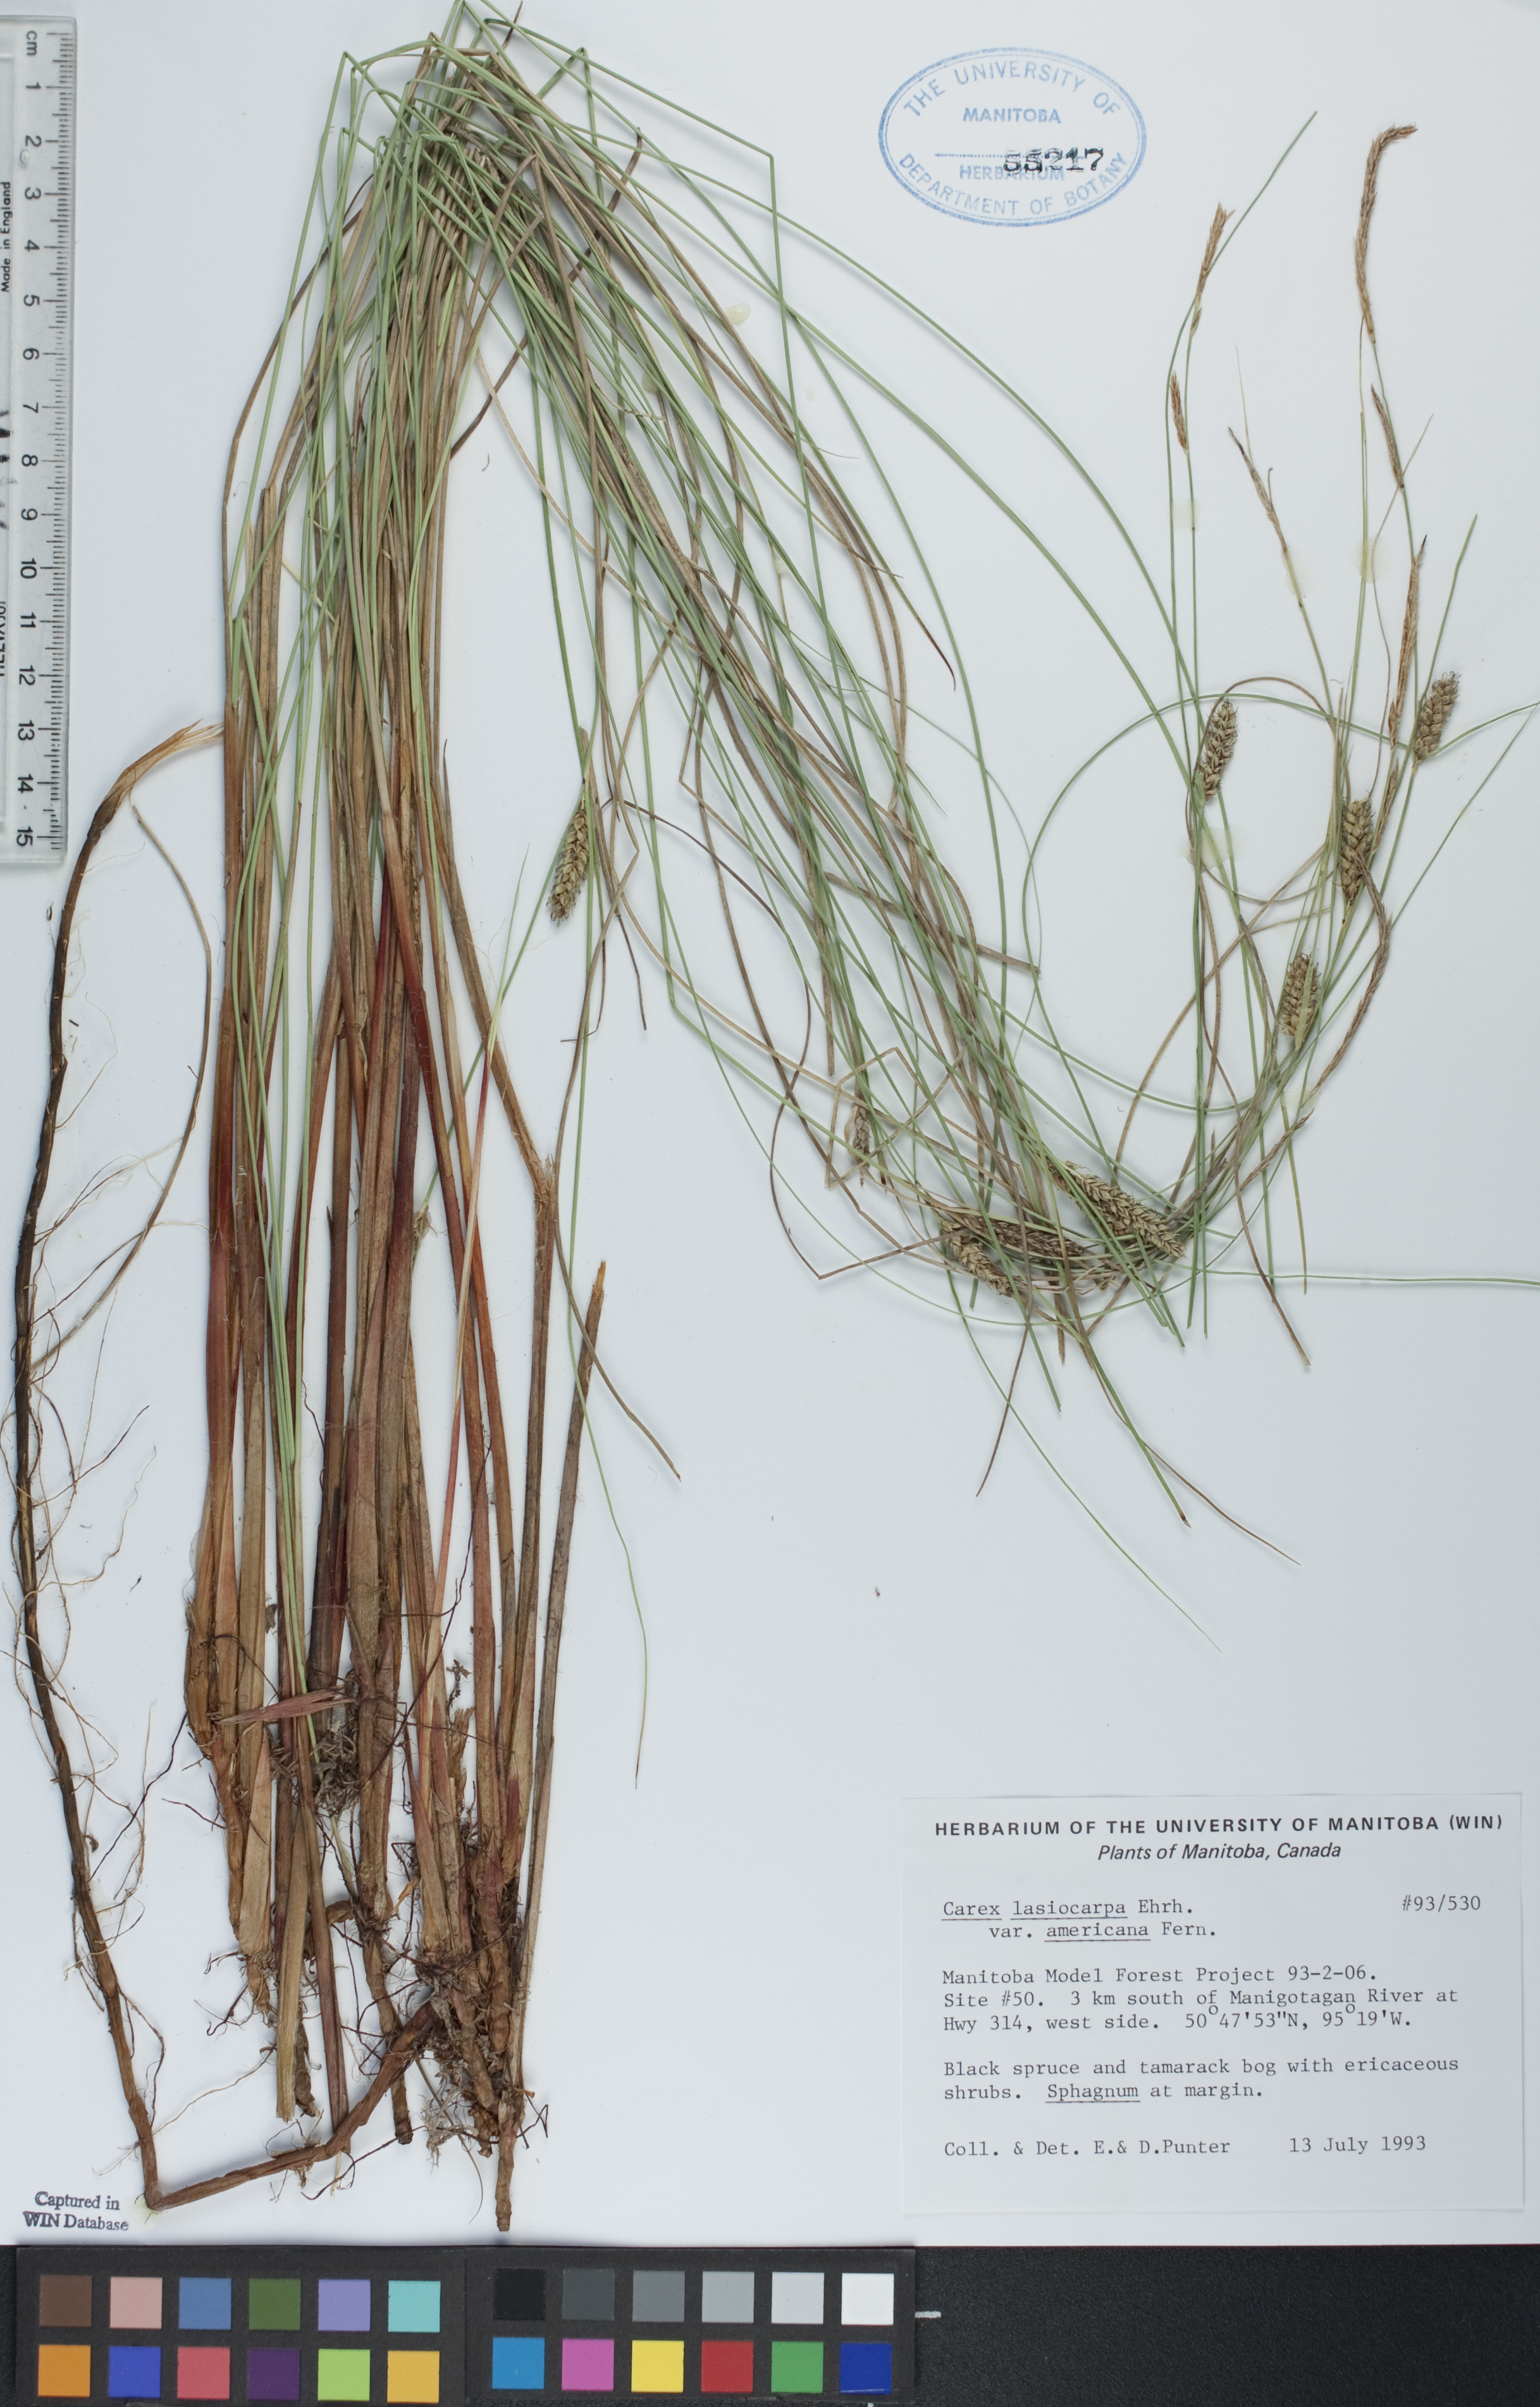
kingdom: Plantae
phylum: Tracheophyta
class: Liliopsida
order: Poales
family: Cyperaceae
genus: Carex
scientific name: Carex lasiocarpa
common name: Slender sedge
